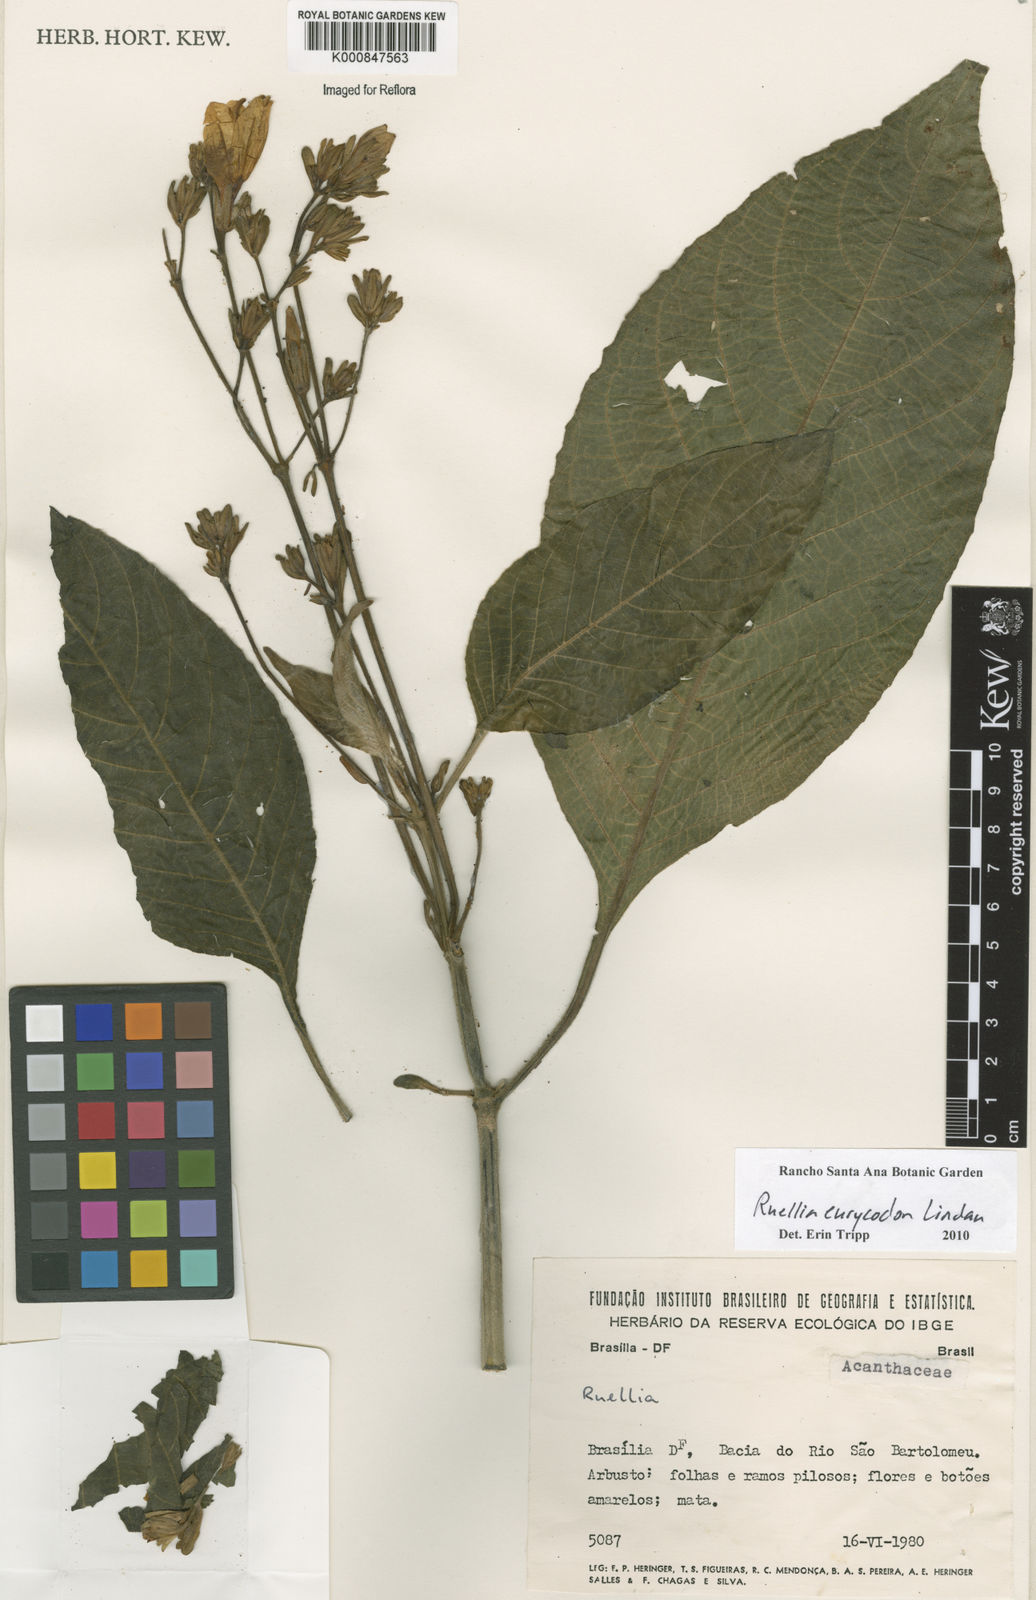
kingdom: Plantae
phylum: Tracheophyta
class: Magnoliopsida
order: Lamiales
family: Acanthaceae
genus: Ruellia
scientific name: Ruellia eurycodon
